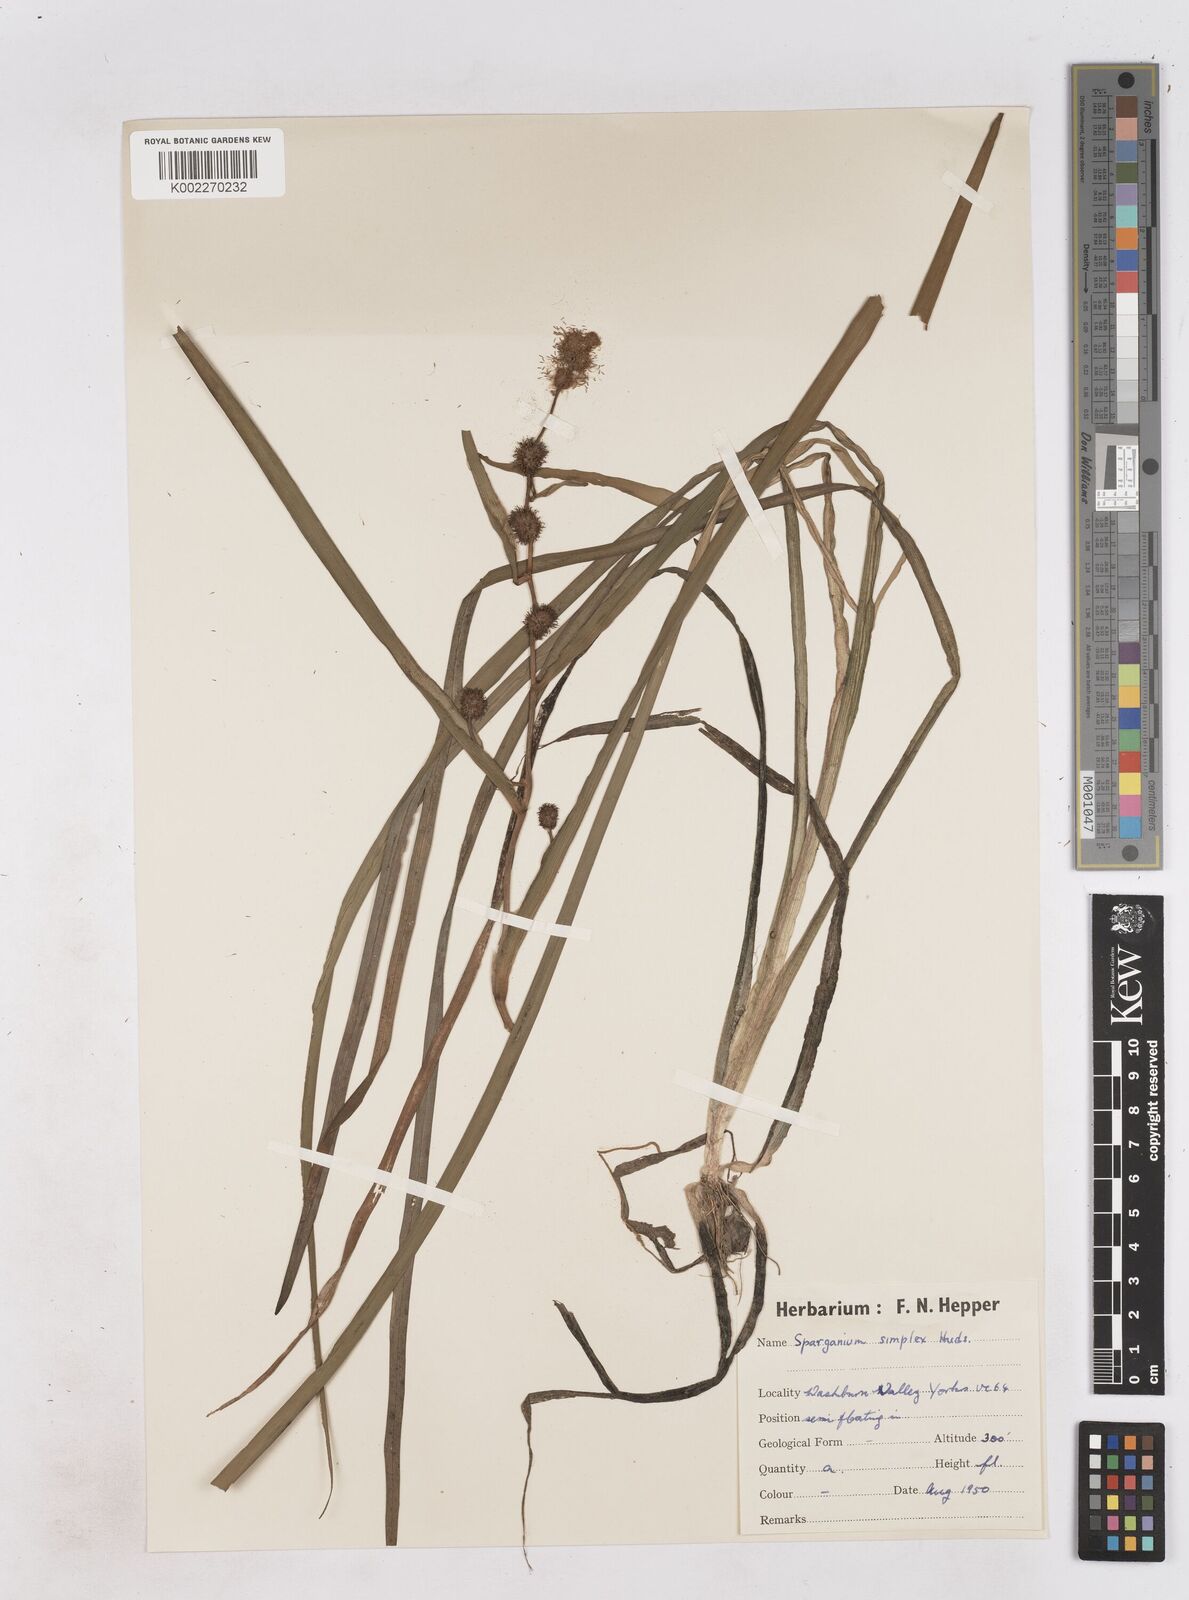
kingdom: Plantae
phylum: Tracheophyta
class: Liliopsida
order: Poales
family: Typhaceae
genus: Sparganium
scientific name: Sparganium emersum
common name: Unbranched bur-reed
